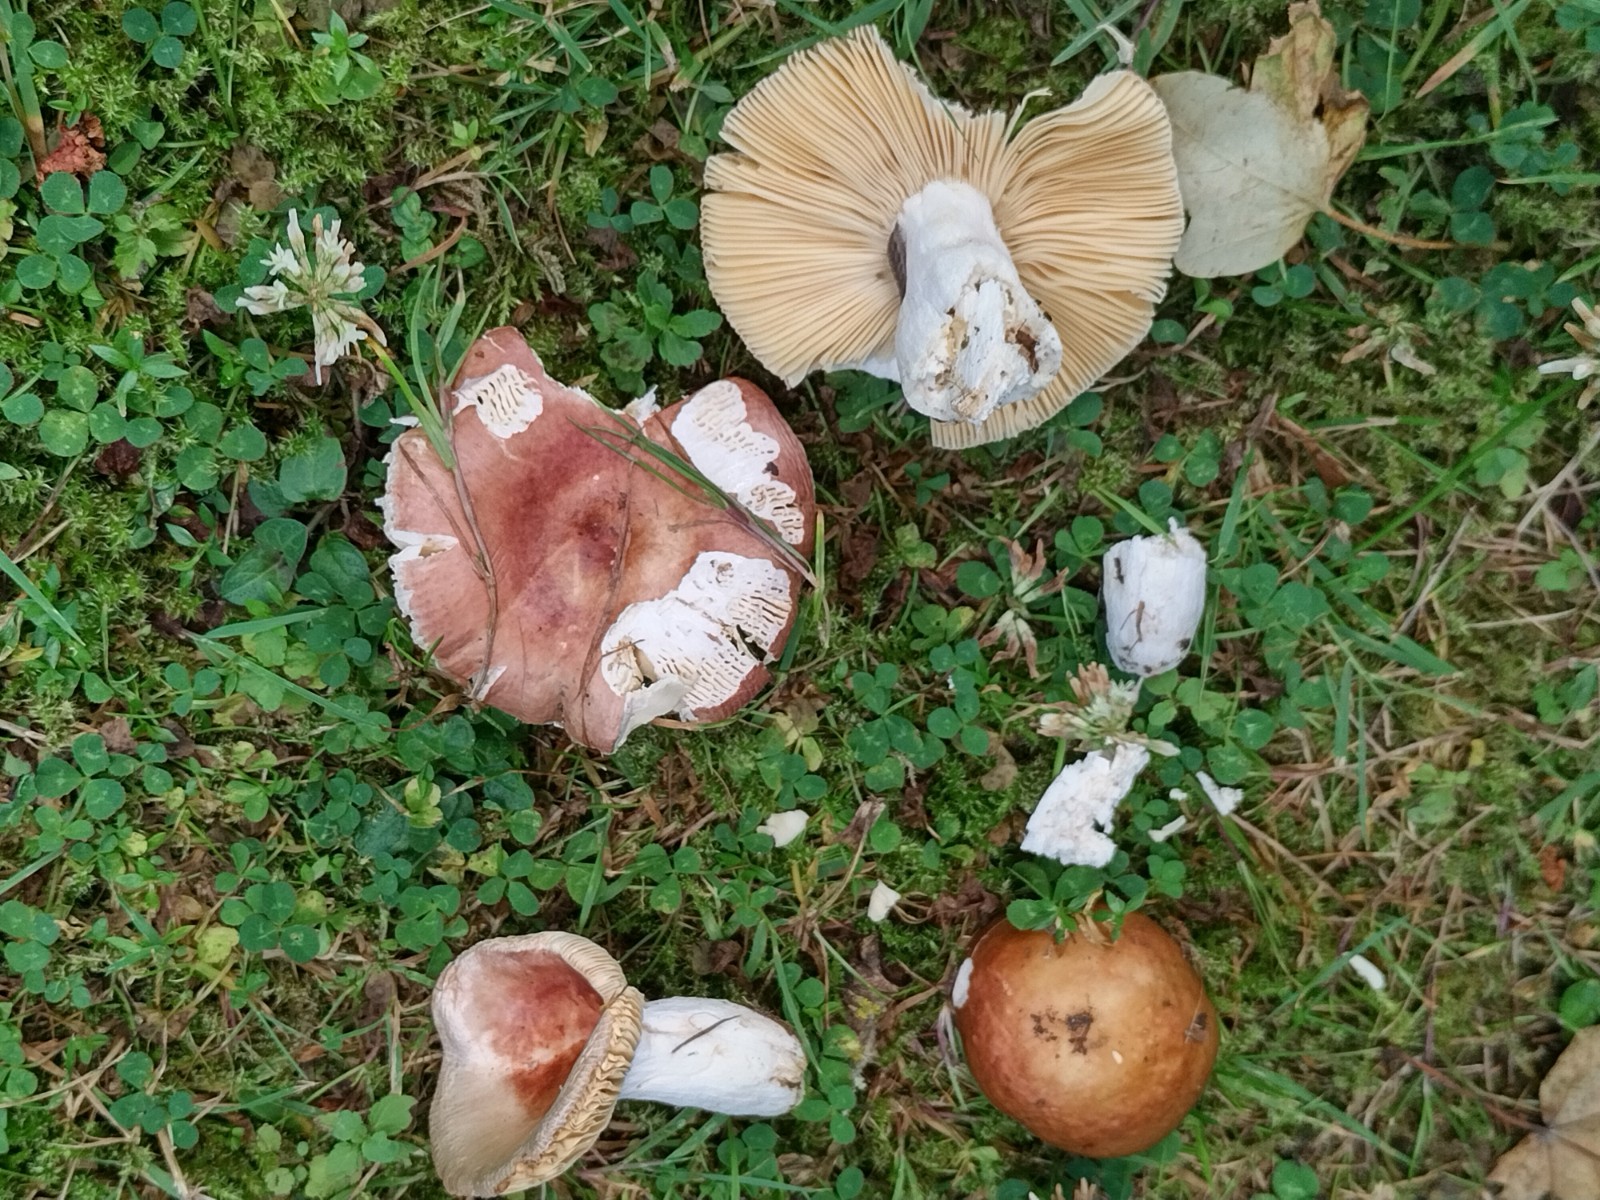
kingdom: Fungi
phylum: Basidiomycota
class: Agaricomycetes
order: Russulales
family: Russulaceae
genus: Russula
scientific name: Russula integra
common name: mandel-skørhat
